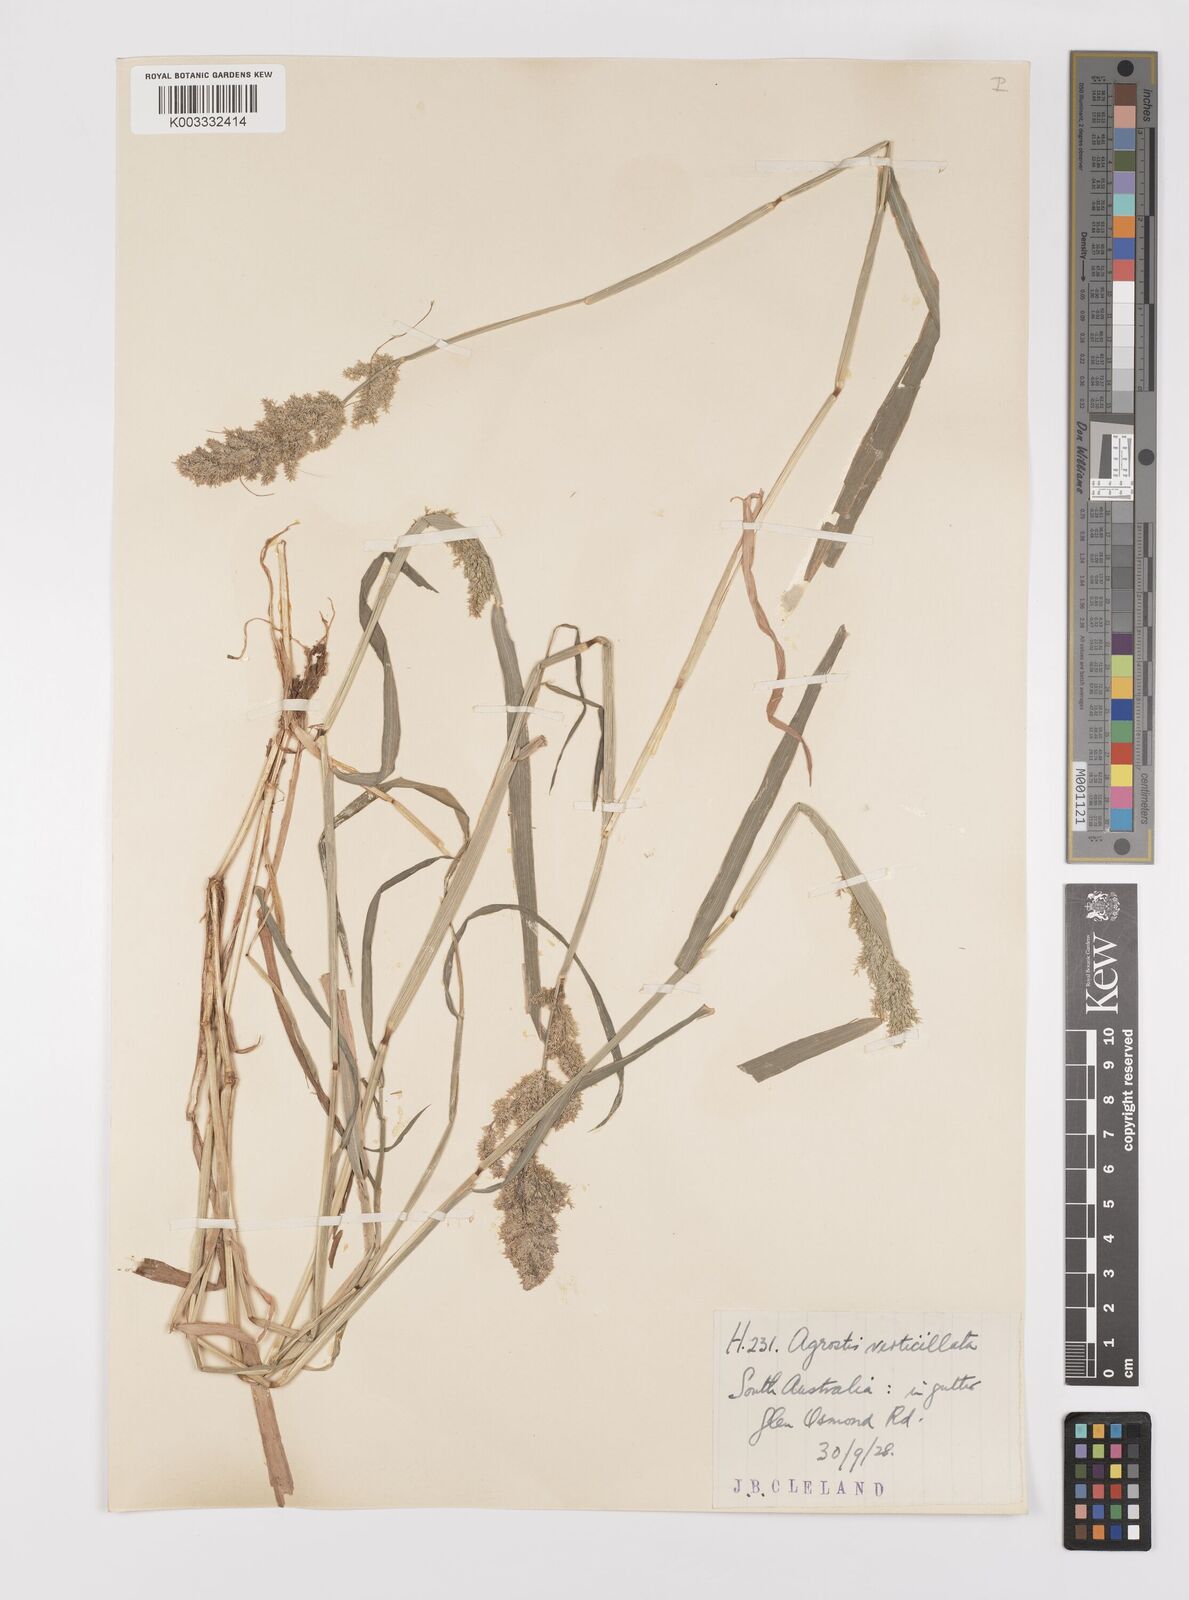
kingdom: Plantae
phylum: Tracheophyta
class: Liliopsida
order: Poales
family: Poaceae
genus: Polypogon
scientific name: Polypogon viridis
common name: Water bent
